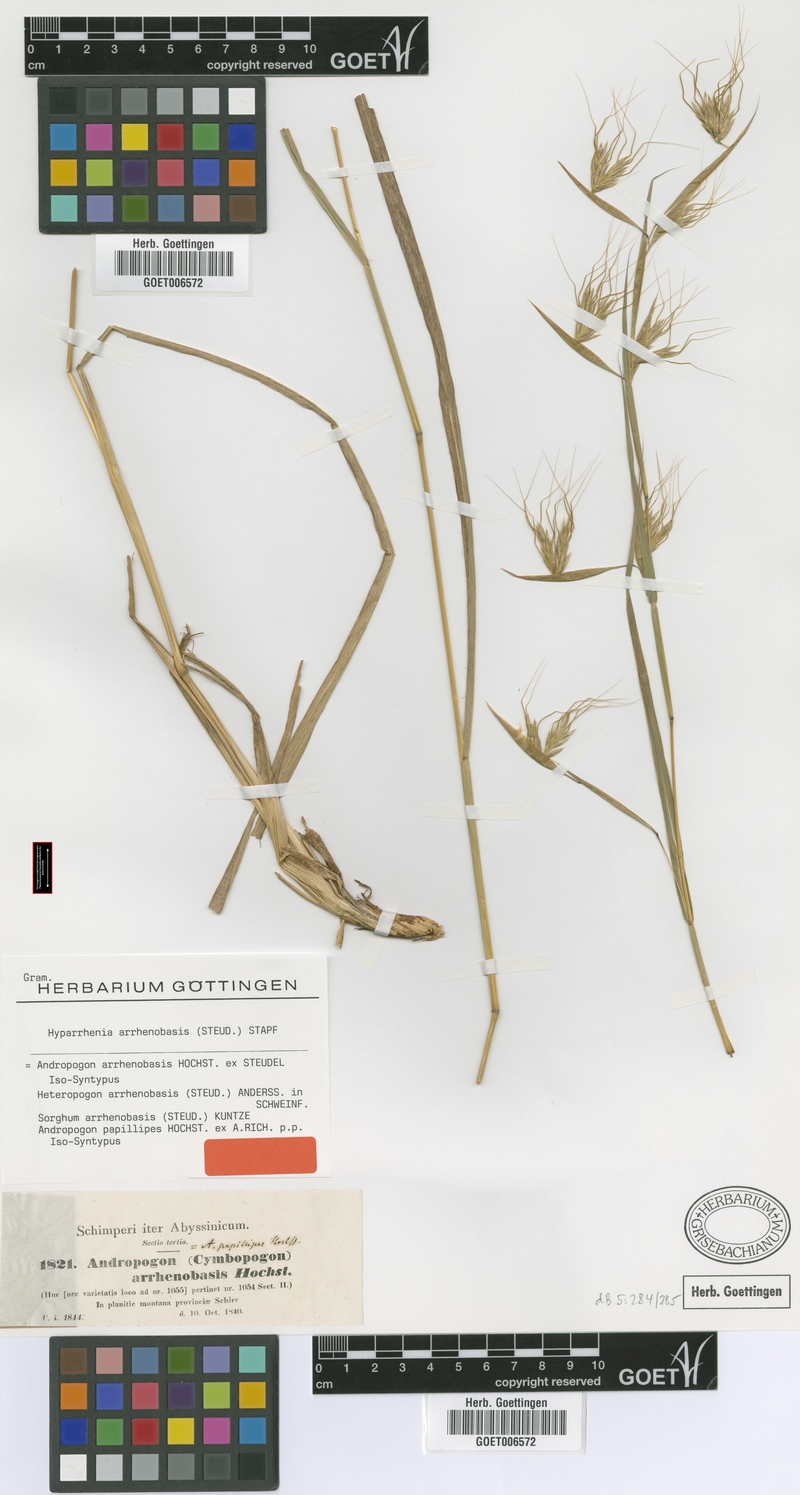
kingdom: Plantae
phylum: Tracheophyta
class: Liliopsida
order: Poales
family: Poaceae
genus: Hyparrhenia
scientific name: Hyparrhenia arrhenobasis
